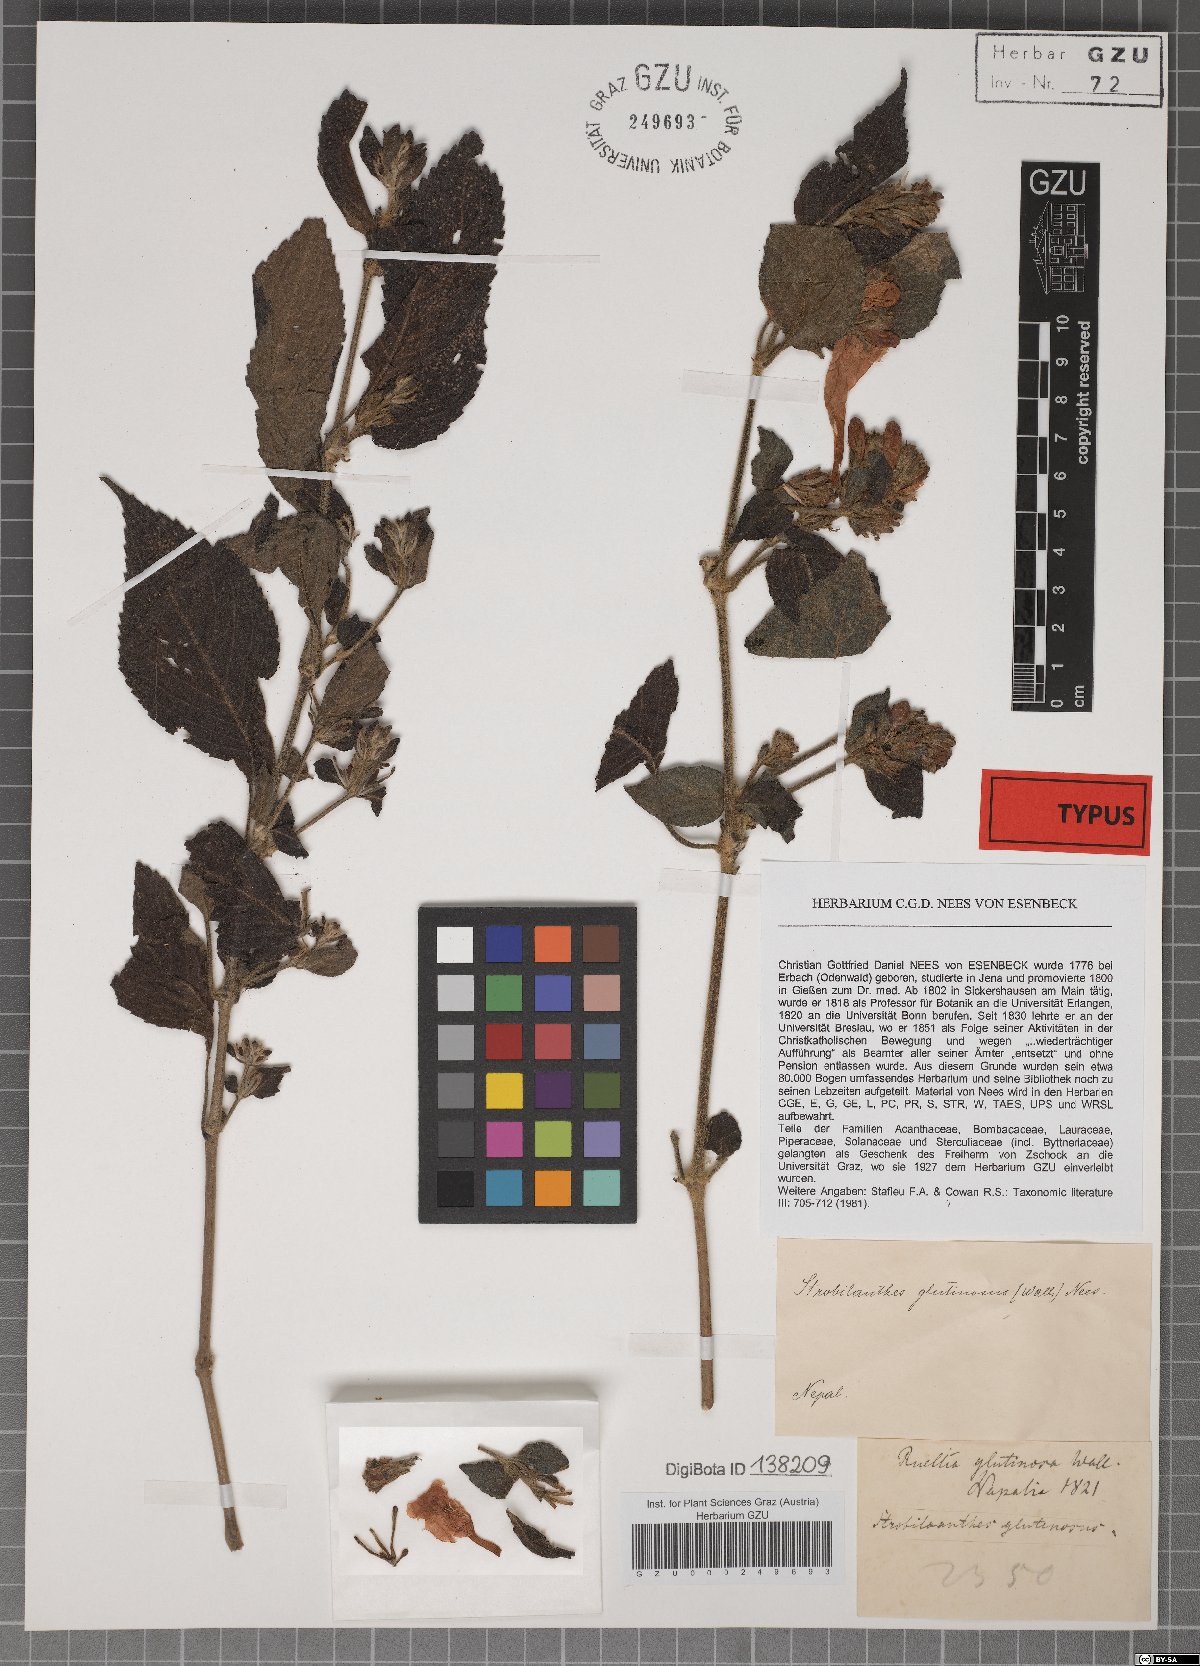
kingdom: Plantae
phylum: Tracheophyta
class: Magnoliopsida
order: Lamiales
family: Acanthaceae
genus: Strobilanthes
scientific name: Strobilanthes glutinosa
